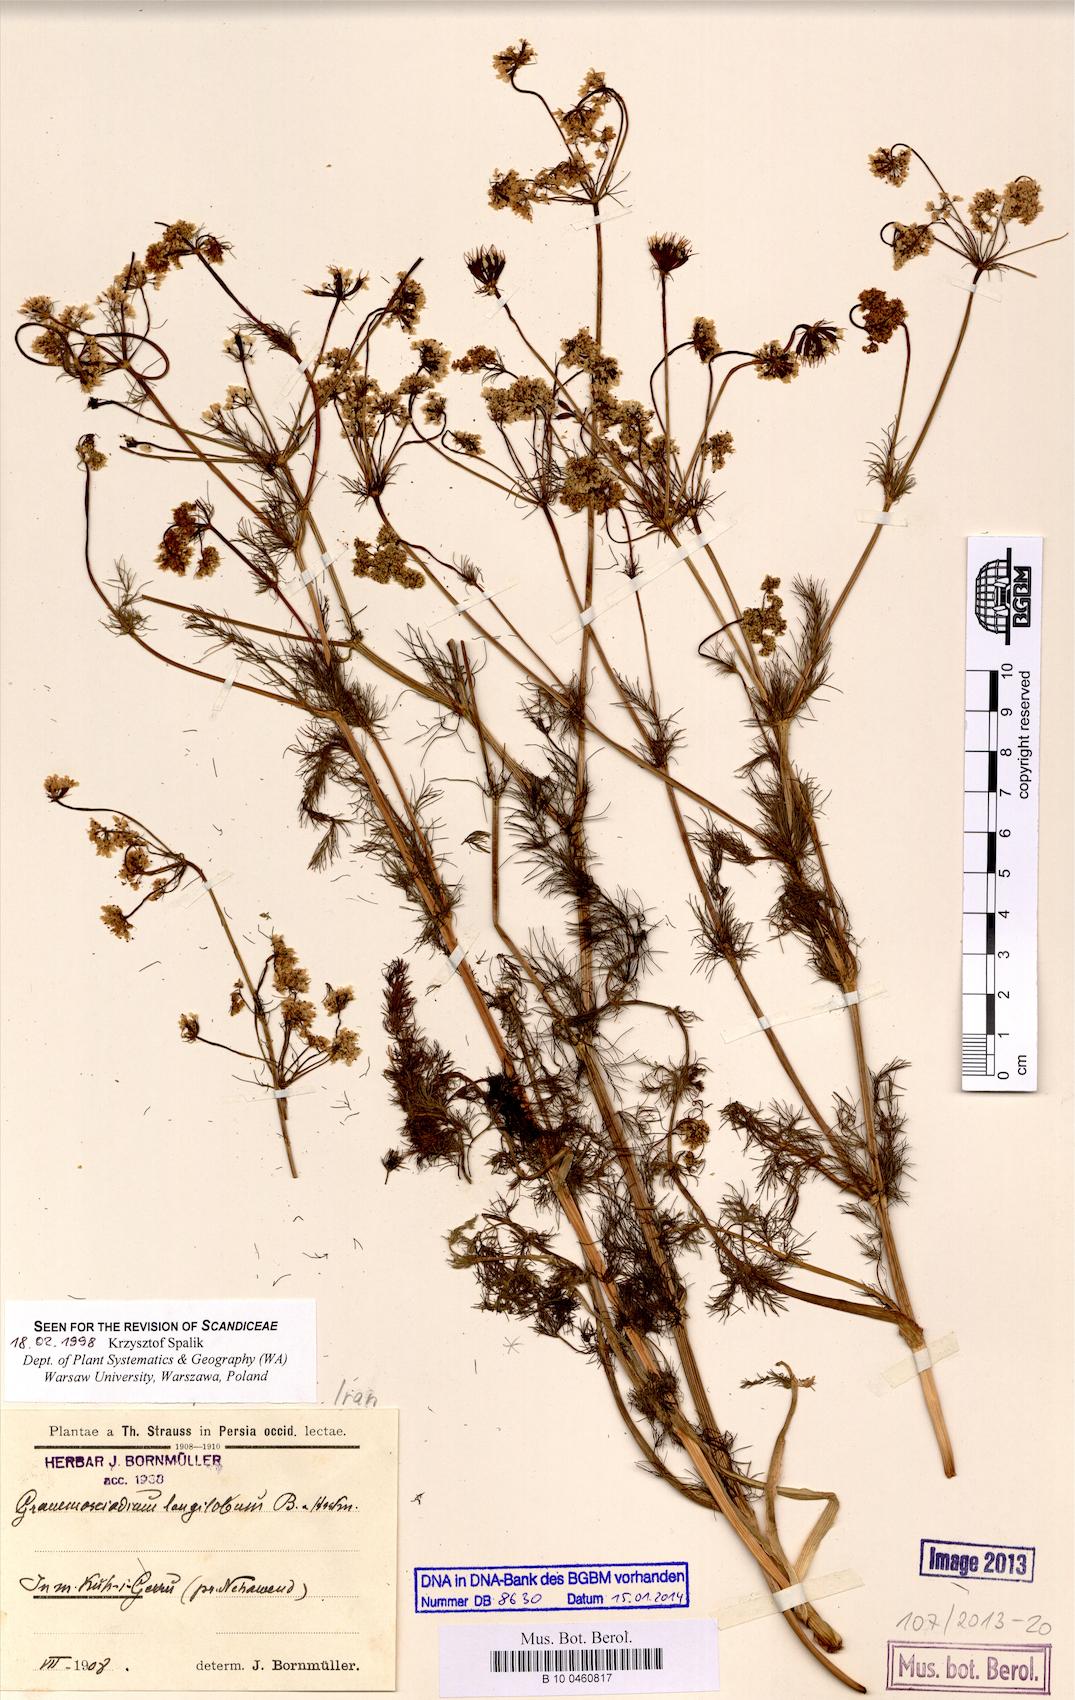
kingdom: Plantae
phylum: Tracheophyta
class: Magnoliopsida
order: Apiales
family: Apiaceae
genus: Grammosciadium
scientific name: Grammosciadium scabridum
